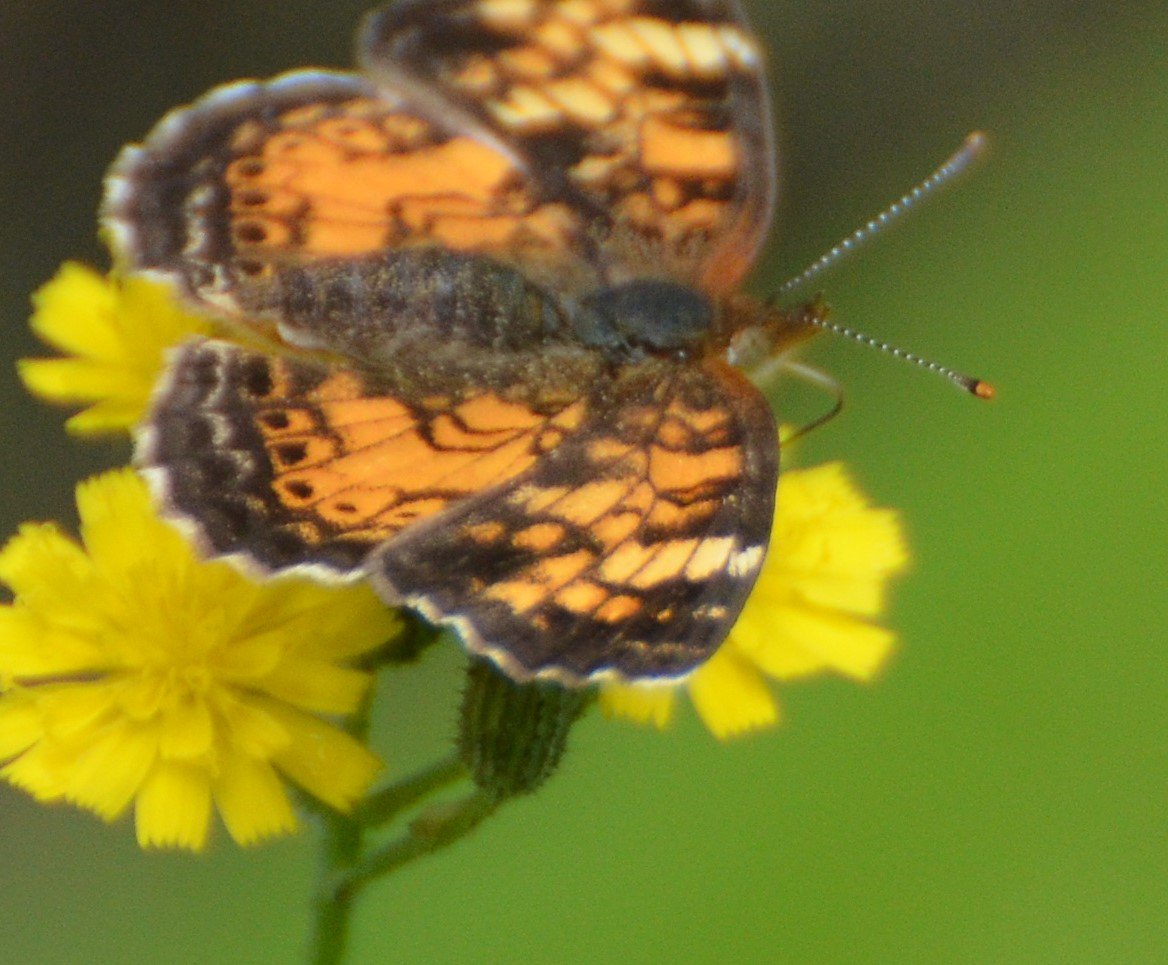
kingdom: Animalia
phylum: Arthropoda
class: Insecta
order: Lepidoptera
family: Nymphalidae
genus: Phyciodes
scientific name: Phyciodes tharos
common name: Northern Crescent
